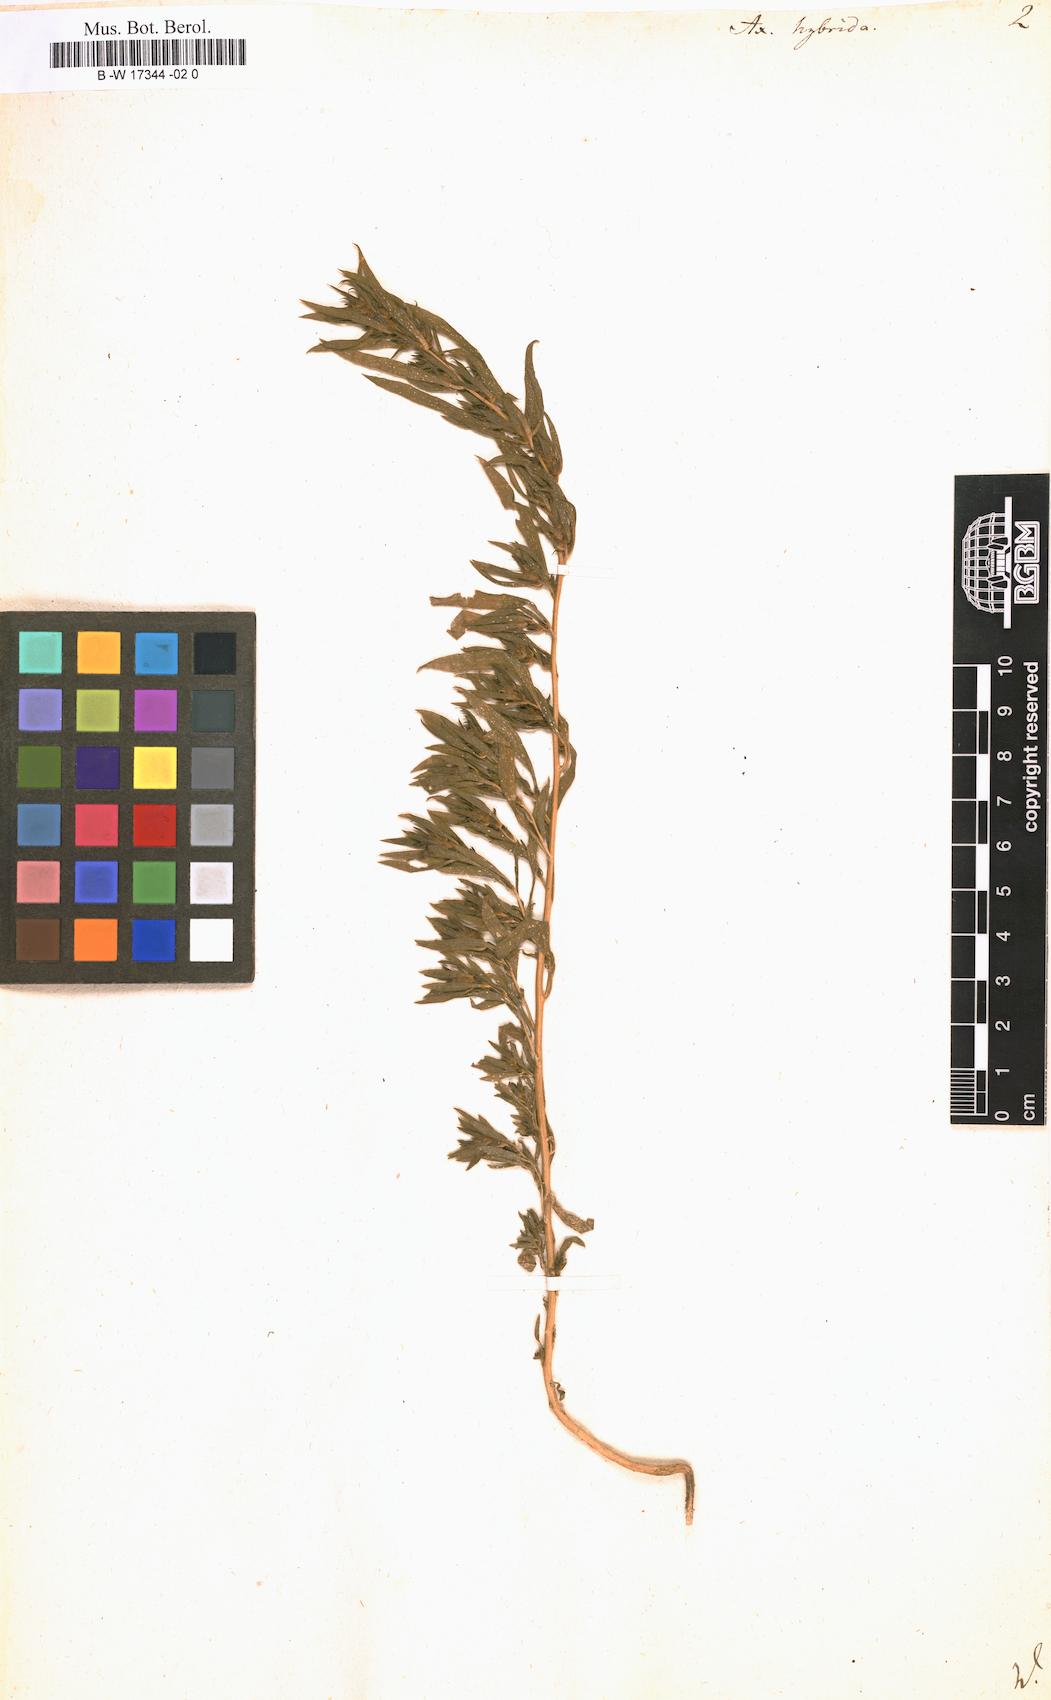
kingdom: Plantae
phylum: Tracheophyta
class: Magnoliopsida
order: Caryophyllales
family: Amaranthaceae
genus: Axyris
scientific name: Axyris hybrida
